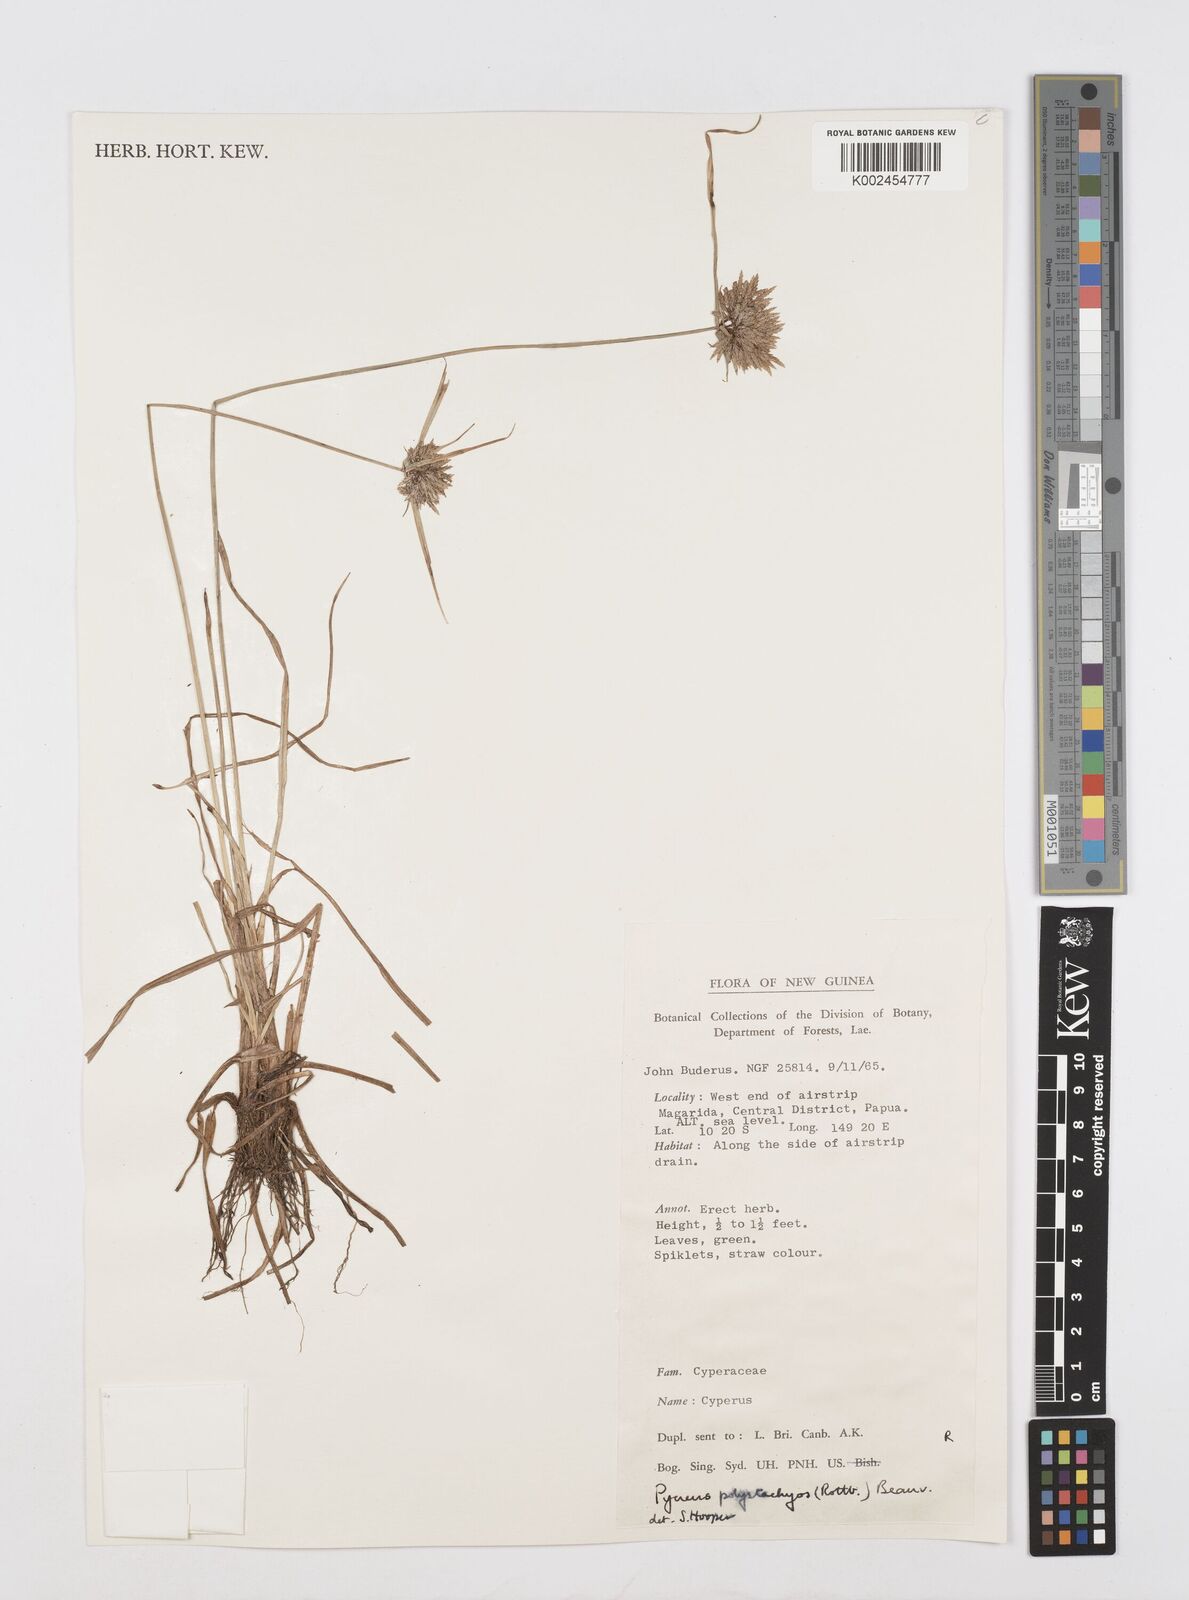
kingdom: Plantae
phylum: Tracheophyta
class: Liliopsida
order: Poales
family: Cyperaceae
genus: Cyperus
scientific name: Cyperus polystachyos
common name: Bunchy flat sedge
